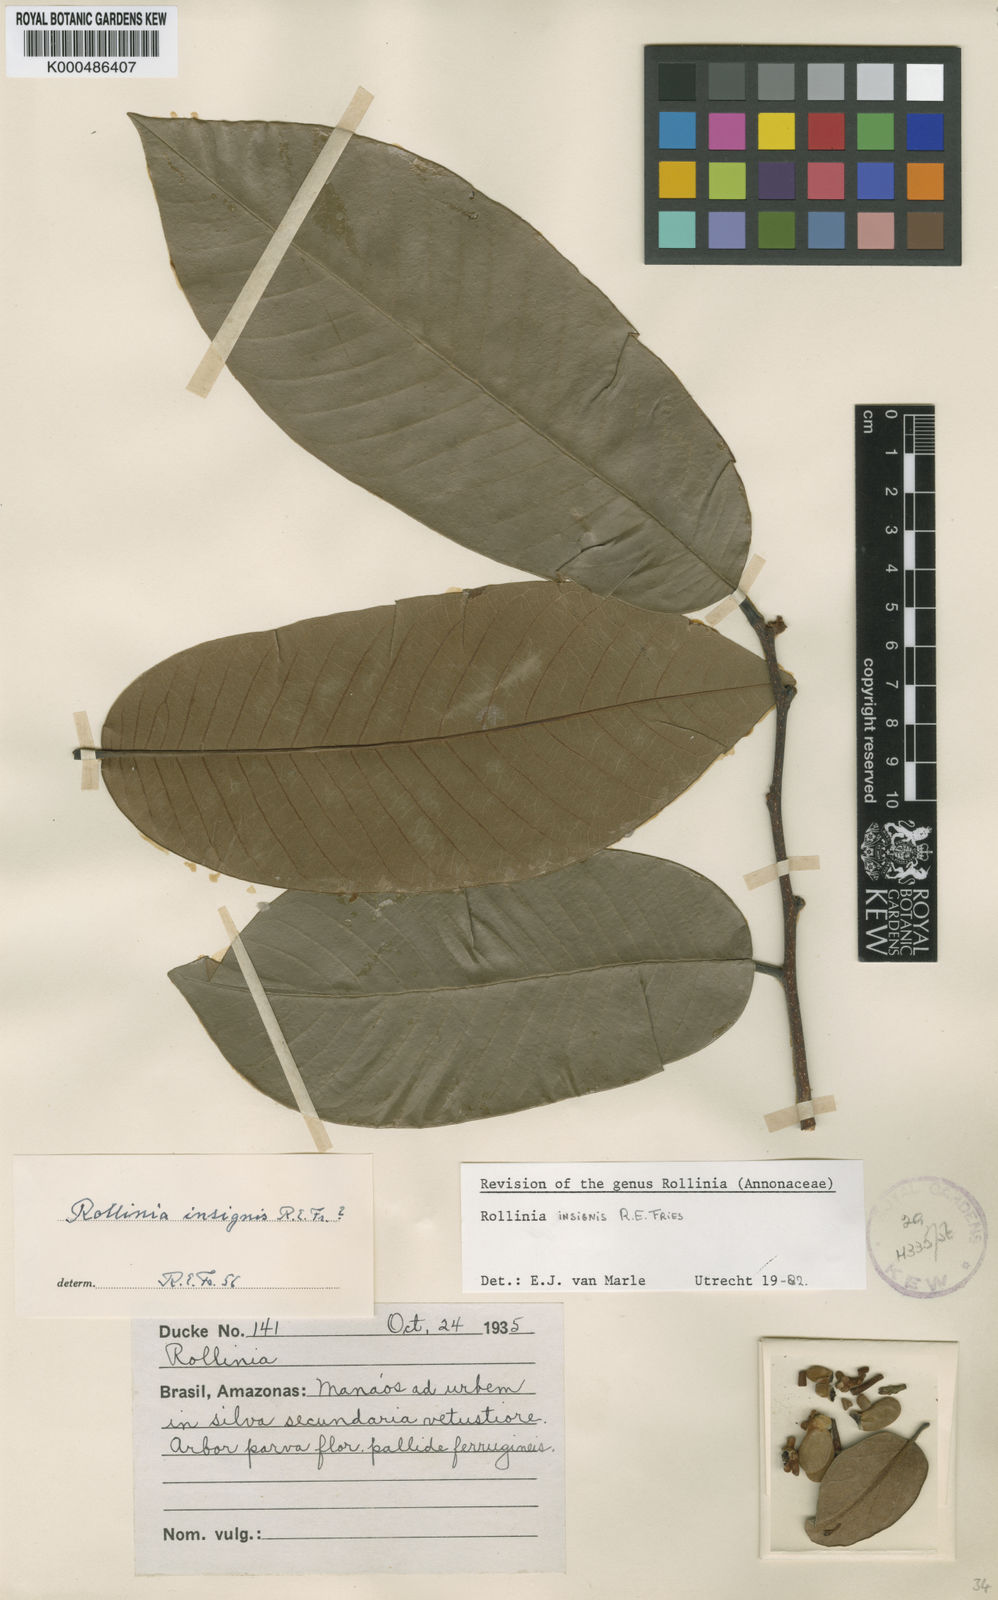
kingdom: Plantae
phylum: Tracheophyta
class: Magnoliopsida
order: Magnoliales
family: Annonaceae
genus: Annona
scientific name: Annona neoinsignis
